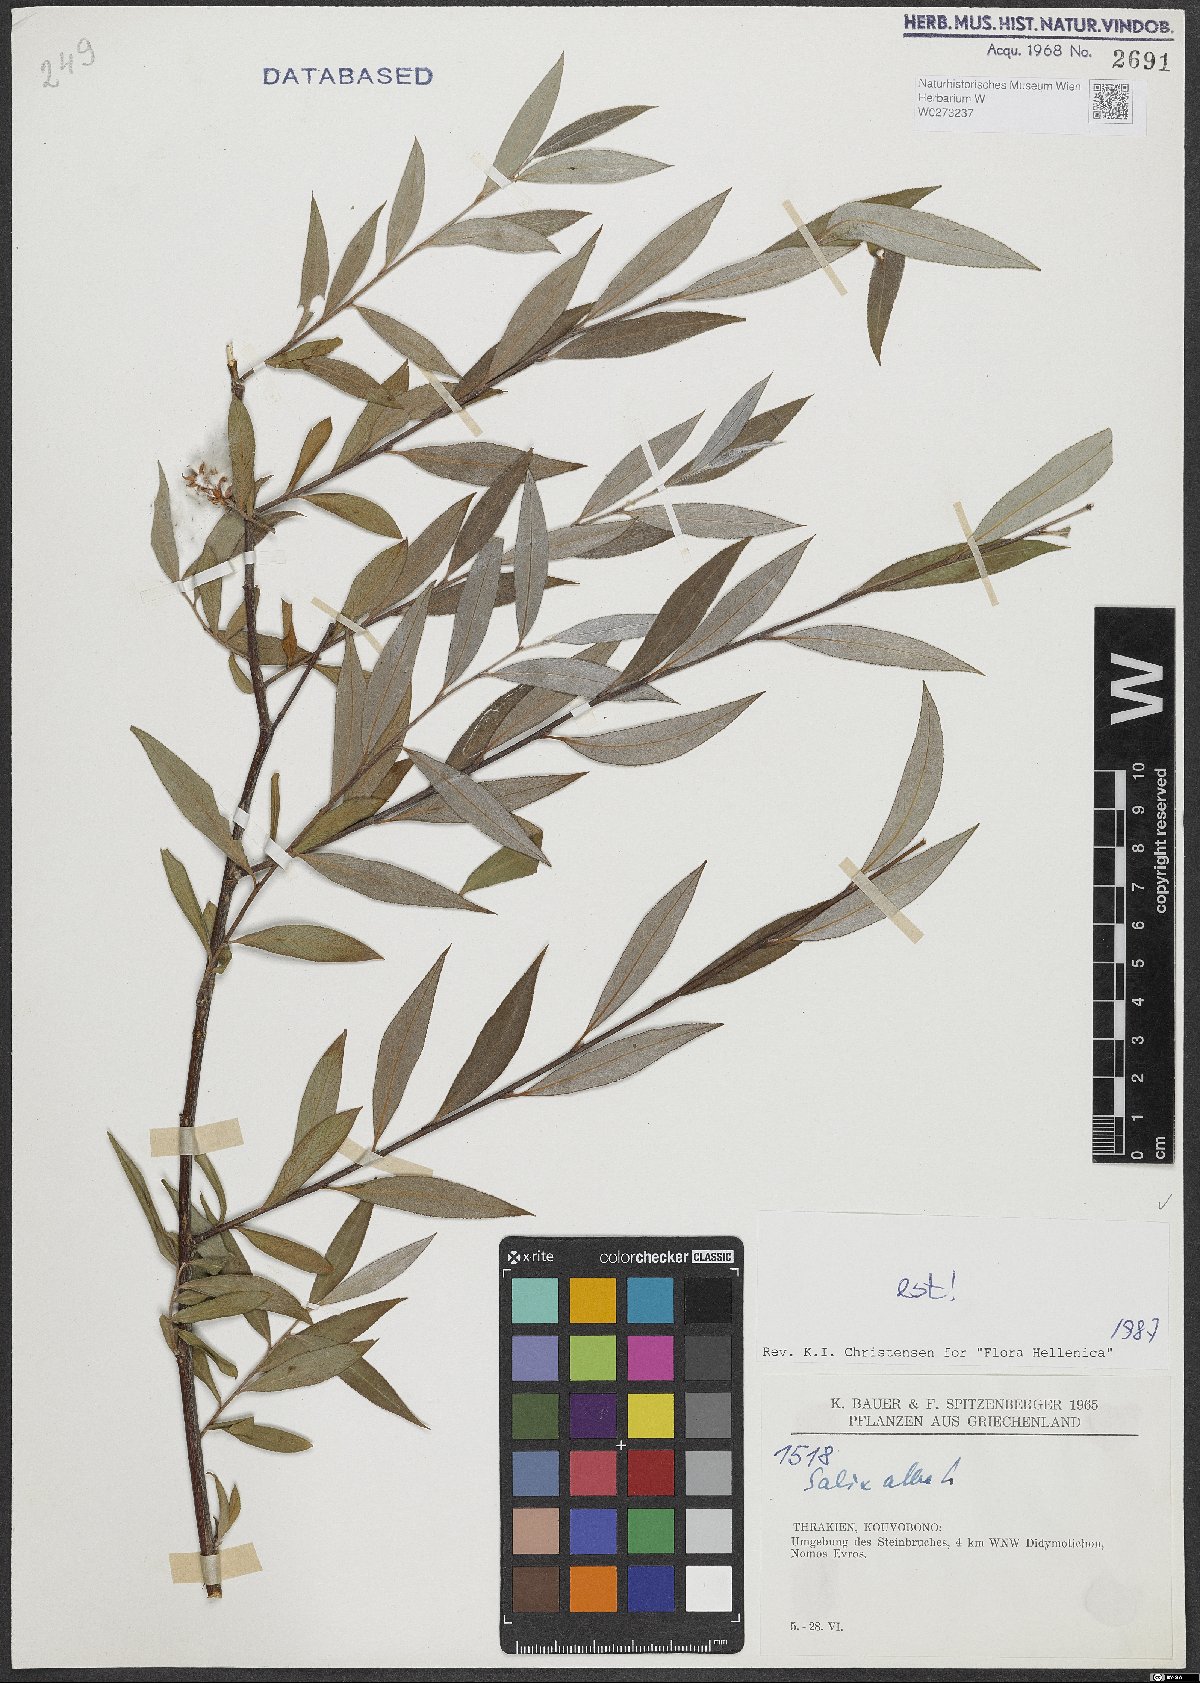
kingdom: Plantae
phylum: Tracheophyta
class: Magnoliopsida
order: Malpighiales
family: Salicaceae
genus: Salix
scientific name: Salix alba
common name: White willow
